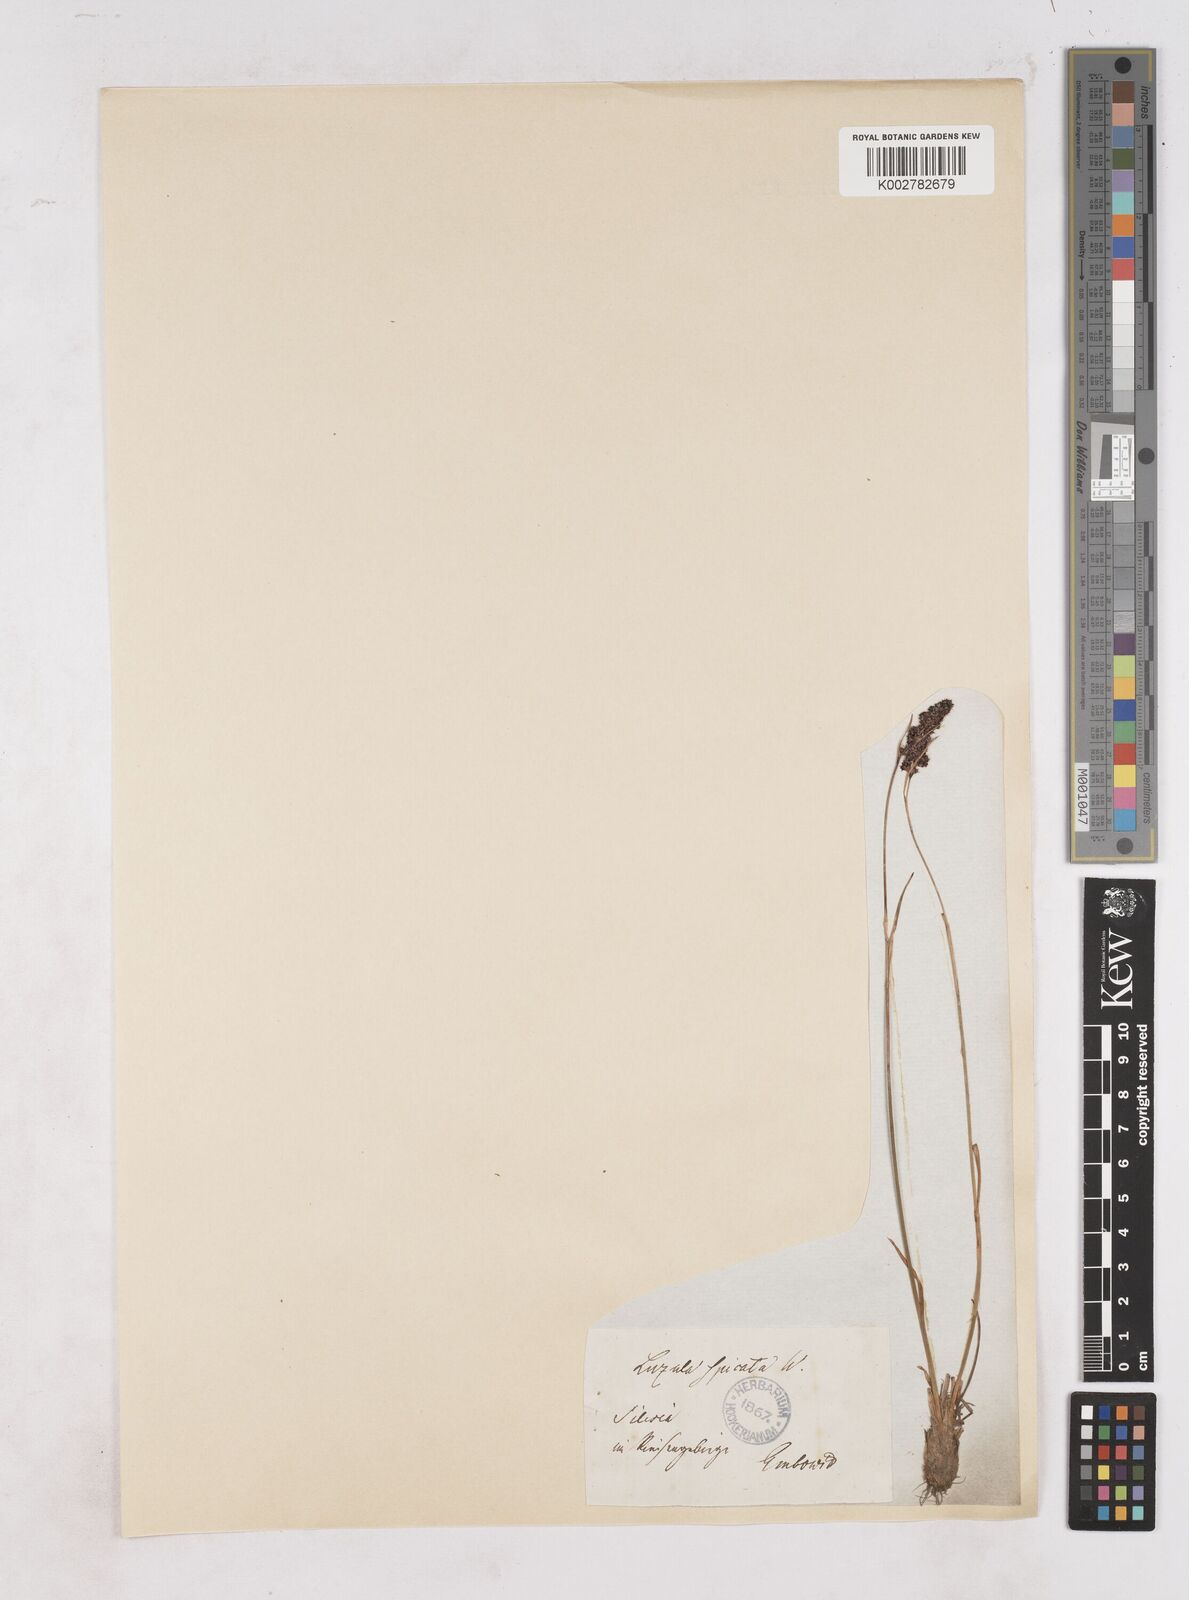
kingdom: Plantae
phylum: Tracheophyta
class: Liliopsida
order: Poales
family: Juncaceae
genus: Luzula
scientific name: Luzula spicata
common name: Spiked wood-rush
